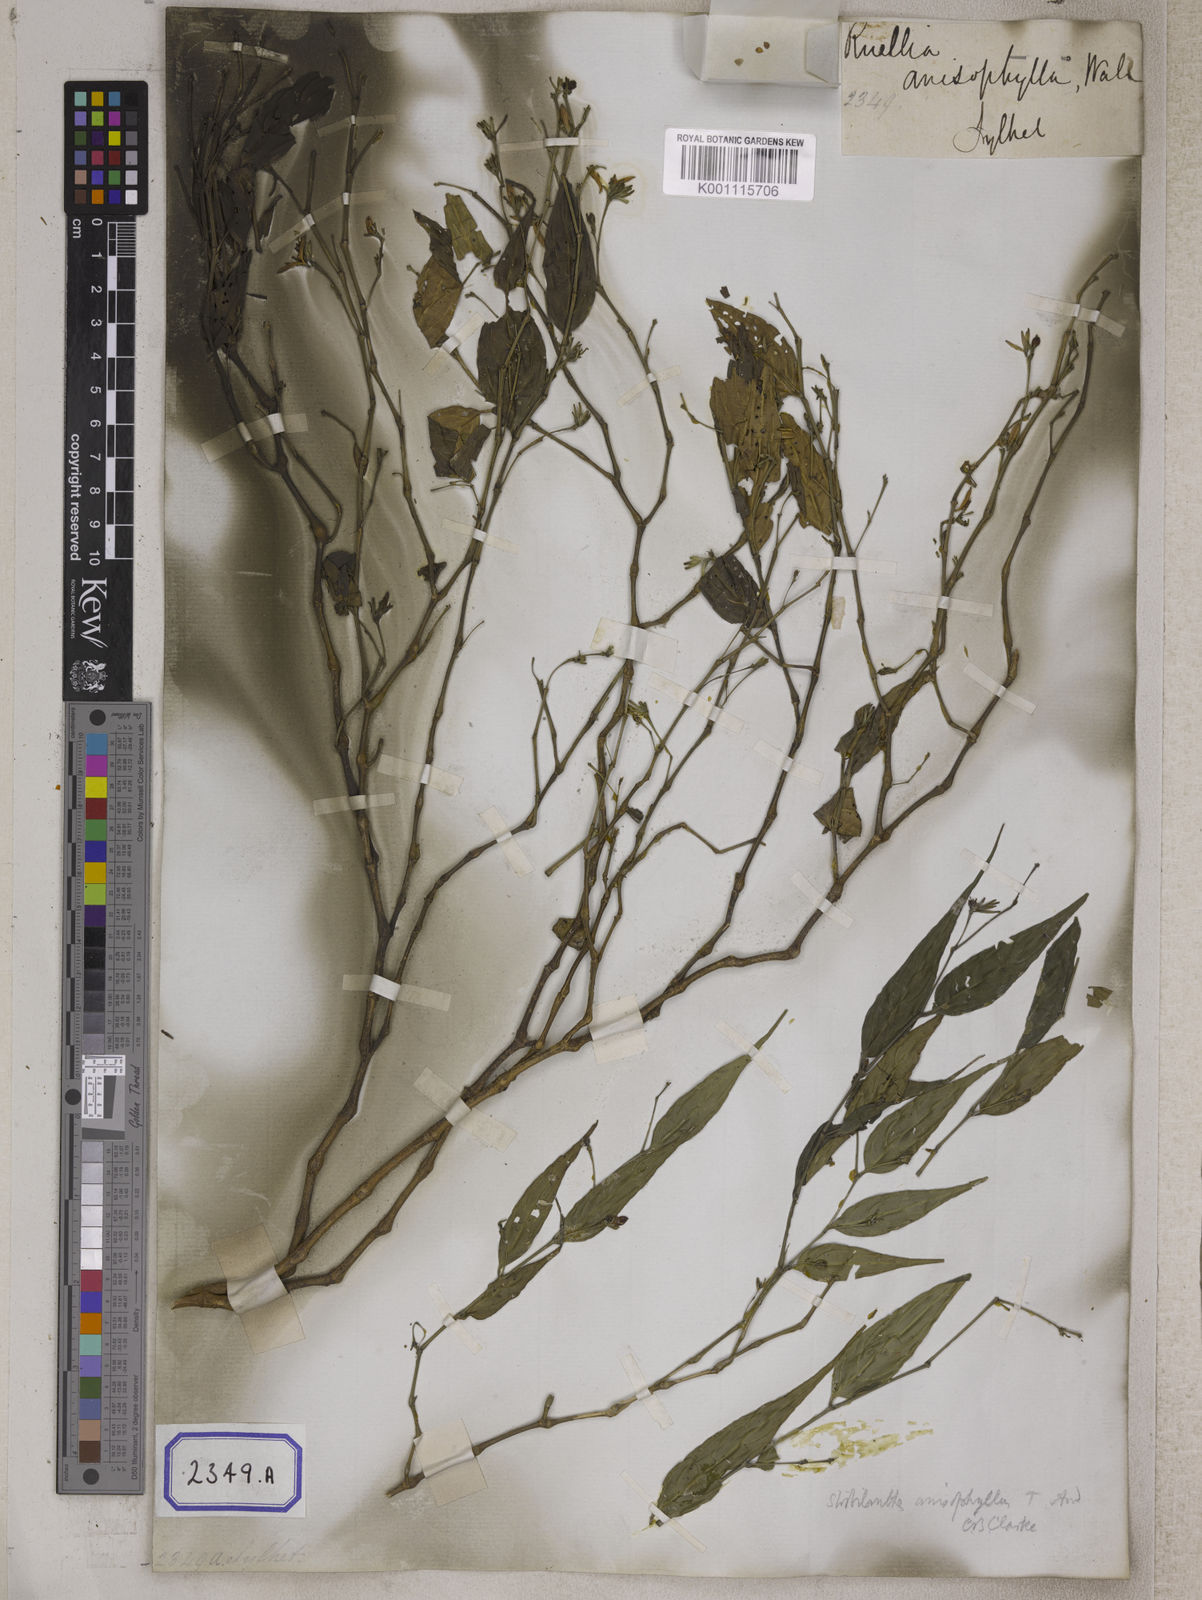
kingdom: Plantae
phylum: Tracheophyta
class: Magnoliopsida
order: Lamiales
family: Acanthaceae
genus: Ruellia
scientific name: Ruellia
